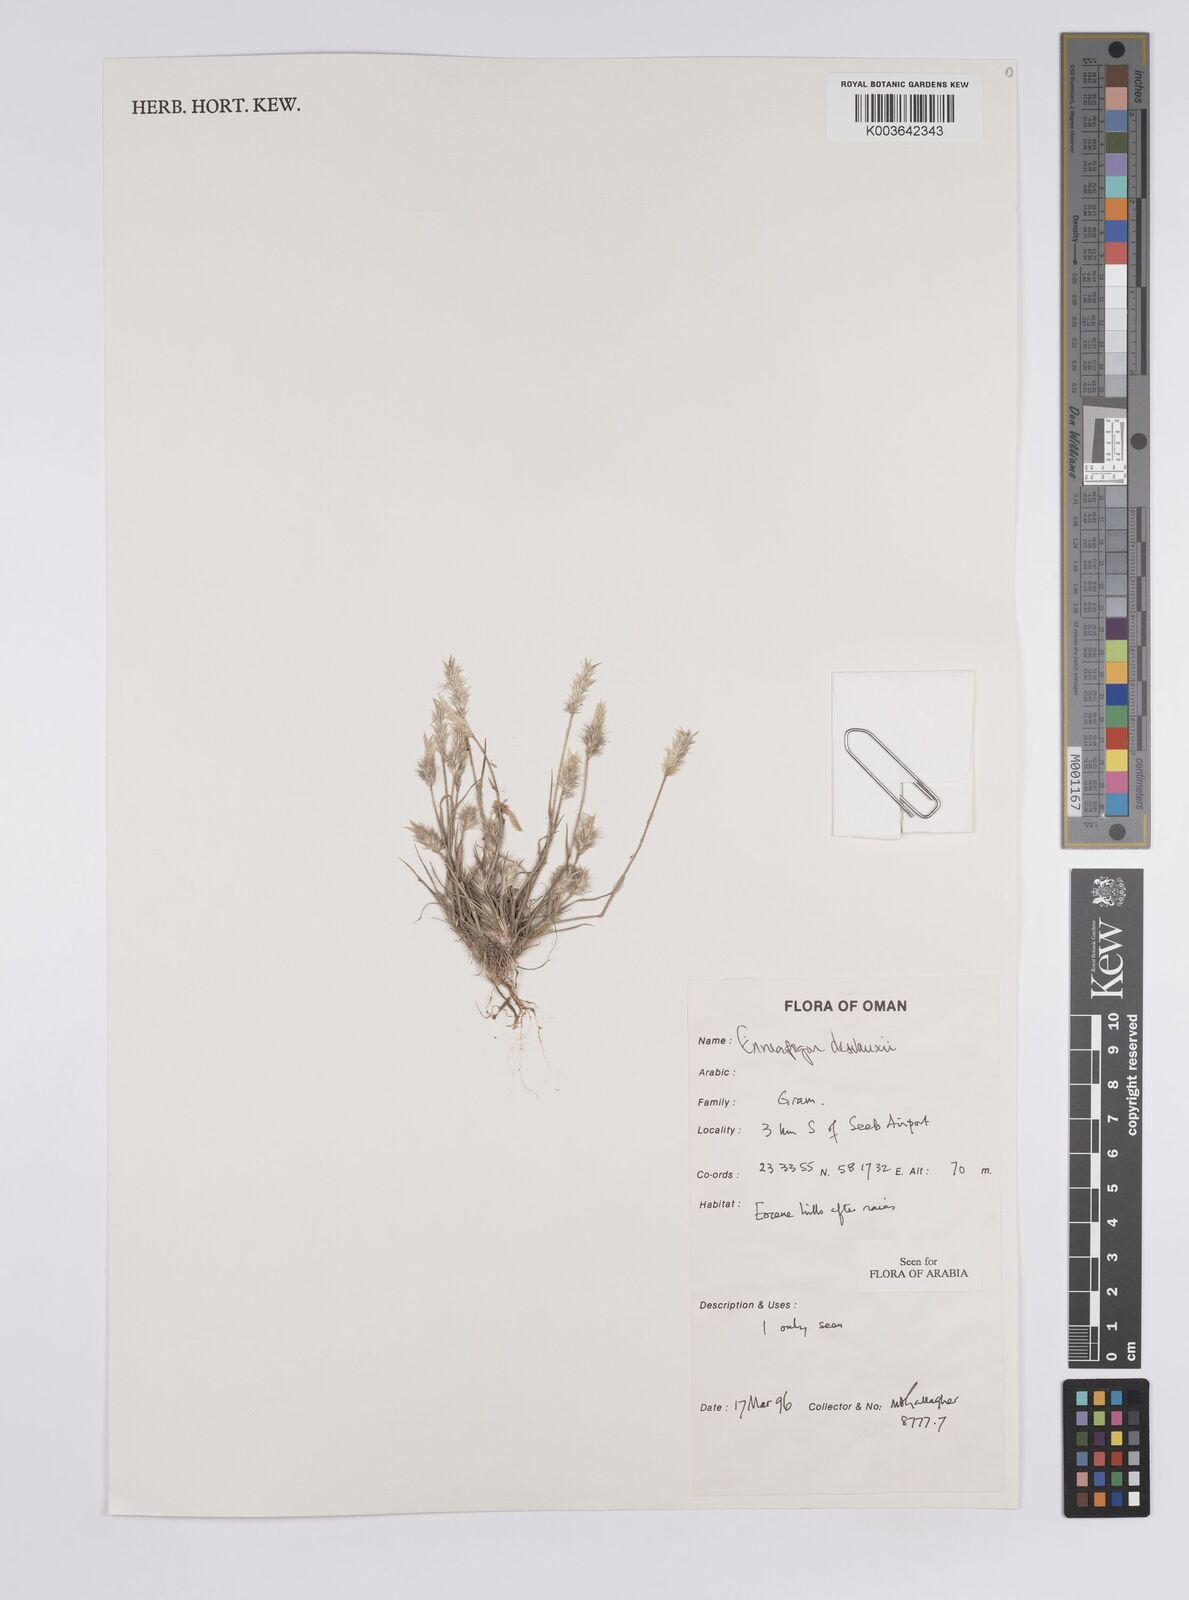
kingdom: Plantae
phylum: Tracheophyta
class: Liliopsida
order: Poales
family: Poaceae
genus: Enneapogon
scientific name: Enneapogon desvauxii
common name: Feather pappus grass
